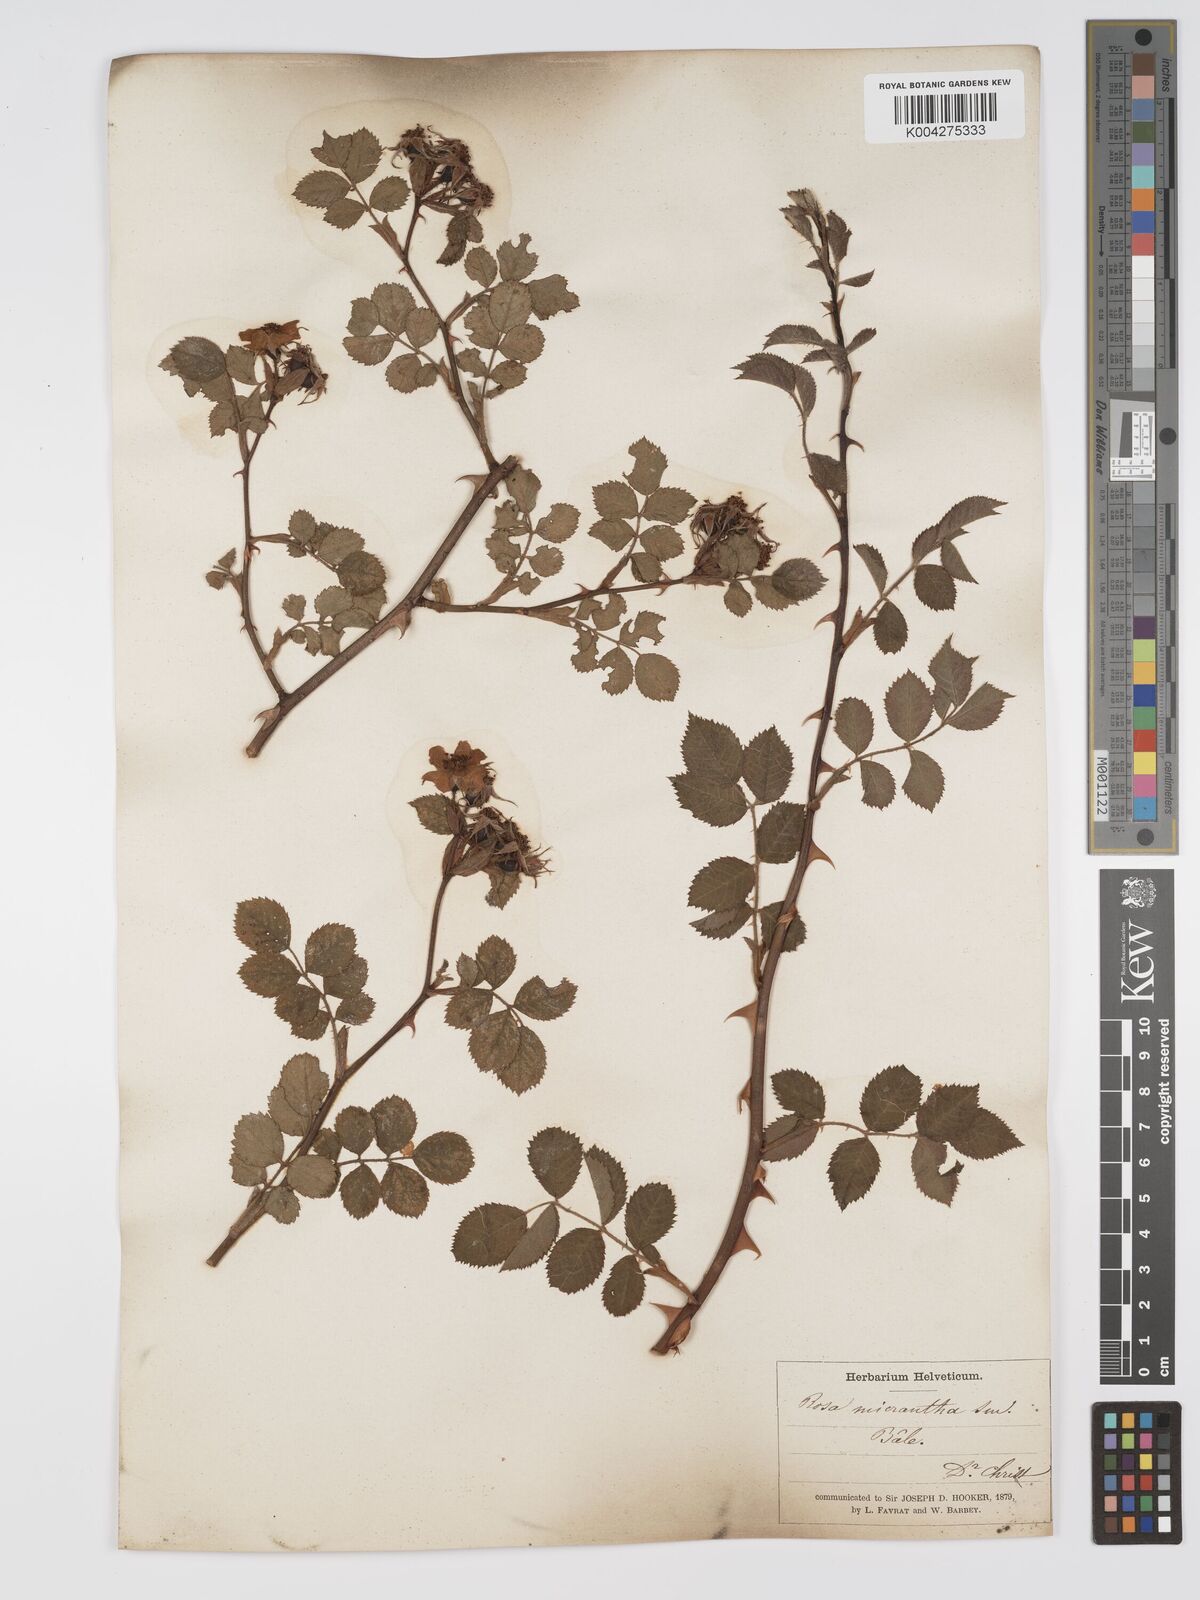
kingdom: Plantae
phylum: Tracheophyta
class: Magnoliopsida
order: Rosales
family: Rosaceae
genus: Rosa
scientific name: Rosa
